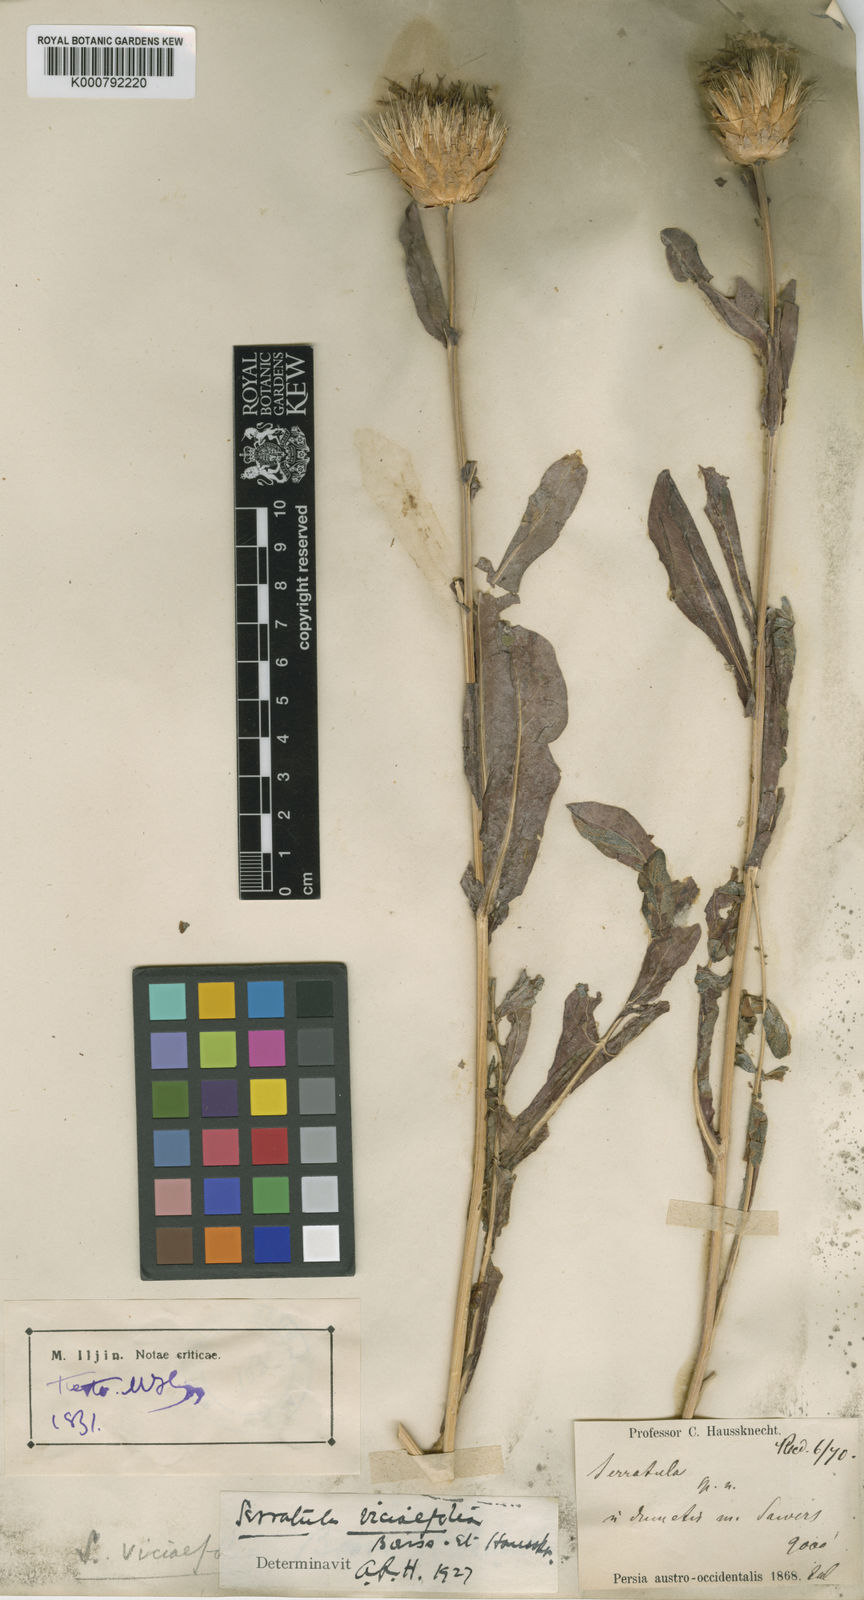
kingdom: Plantae
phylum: Tracheophyta
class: Magnoliopsida
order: Asterales
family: Asteraceae
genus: Serratula
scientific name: Serratula
